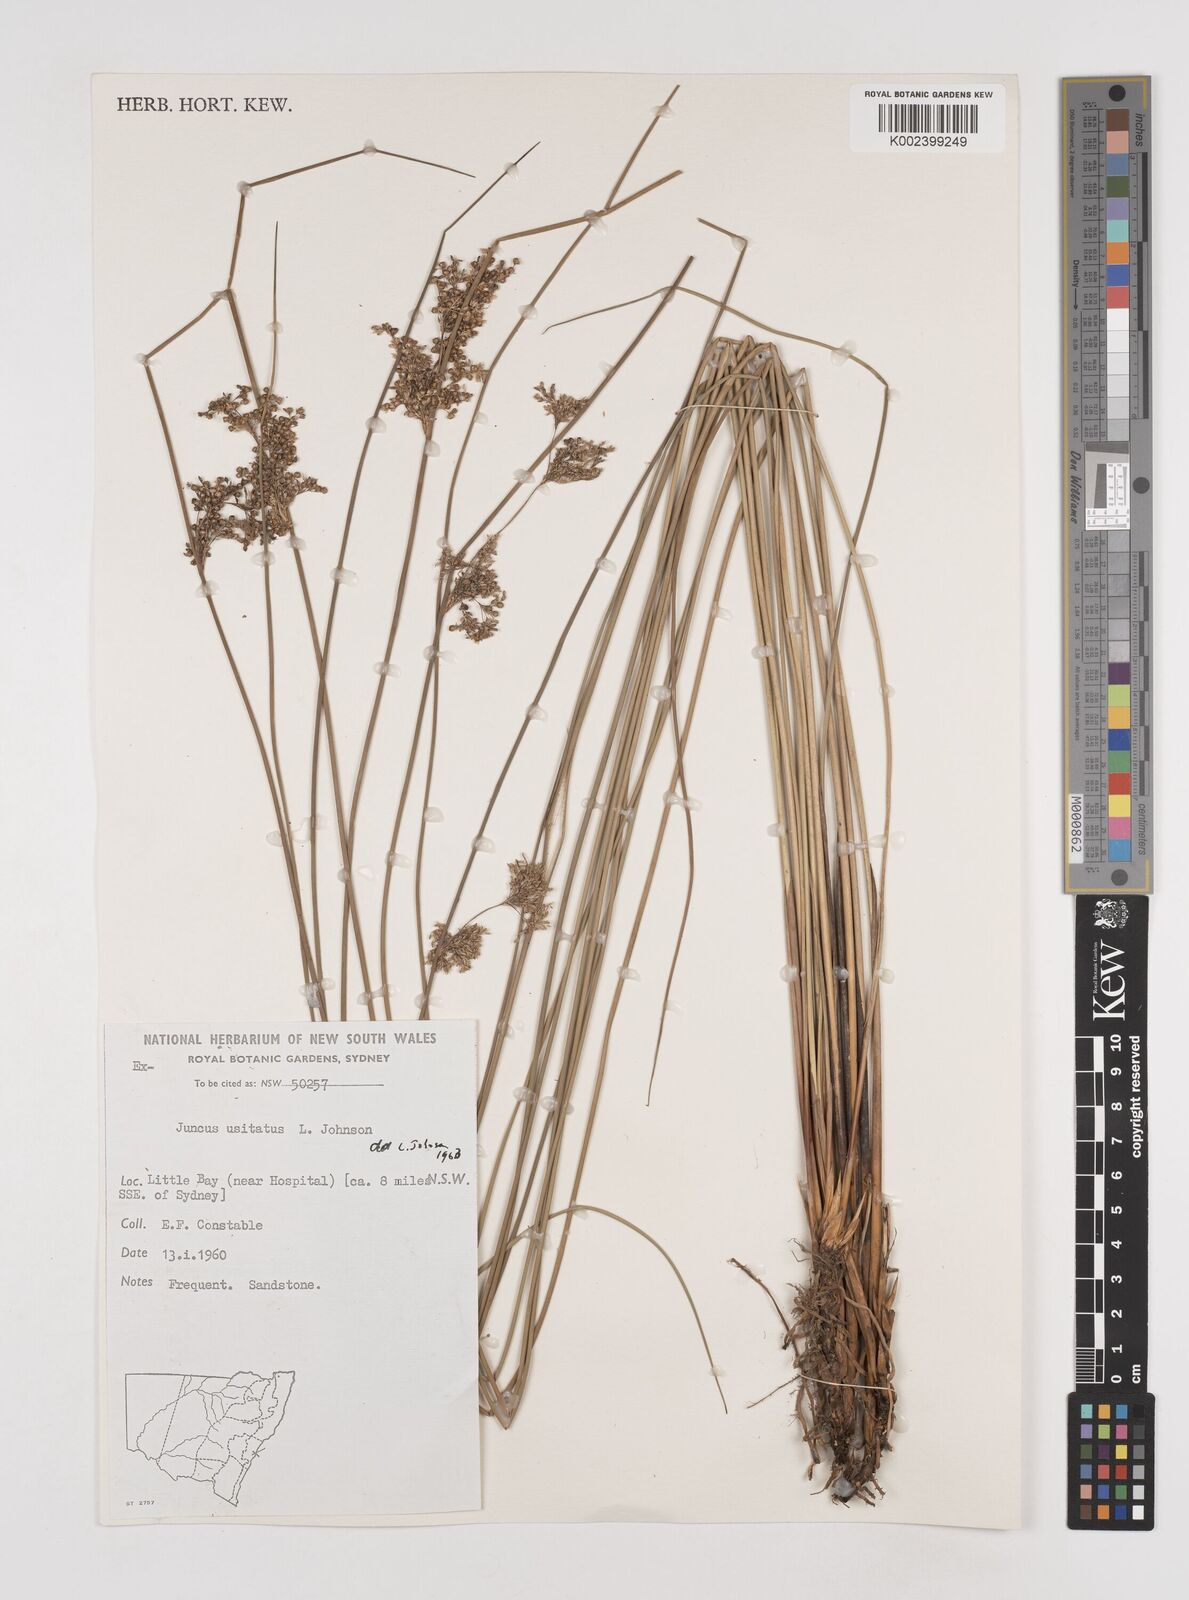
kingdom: Plantae
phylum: Tracheophyta
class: Liliopsida
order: Poales
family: Juncaceae
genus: Juncus
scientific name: Juncus usitatus
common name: Rush
